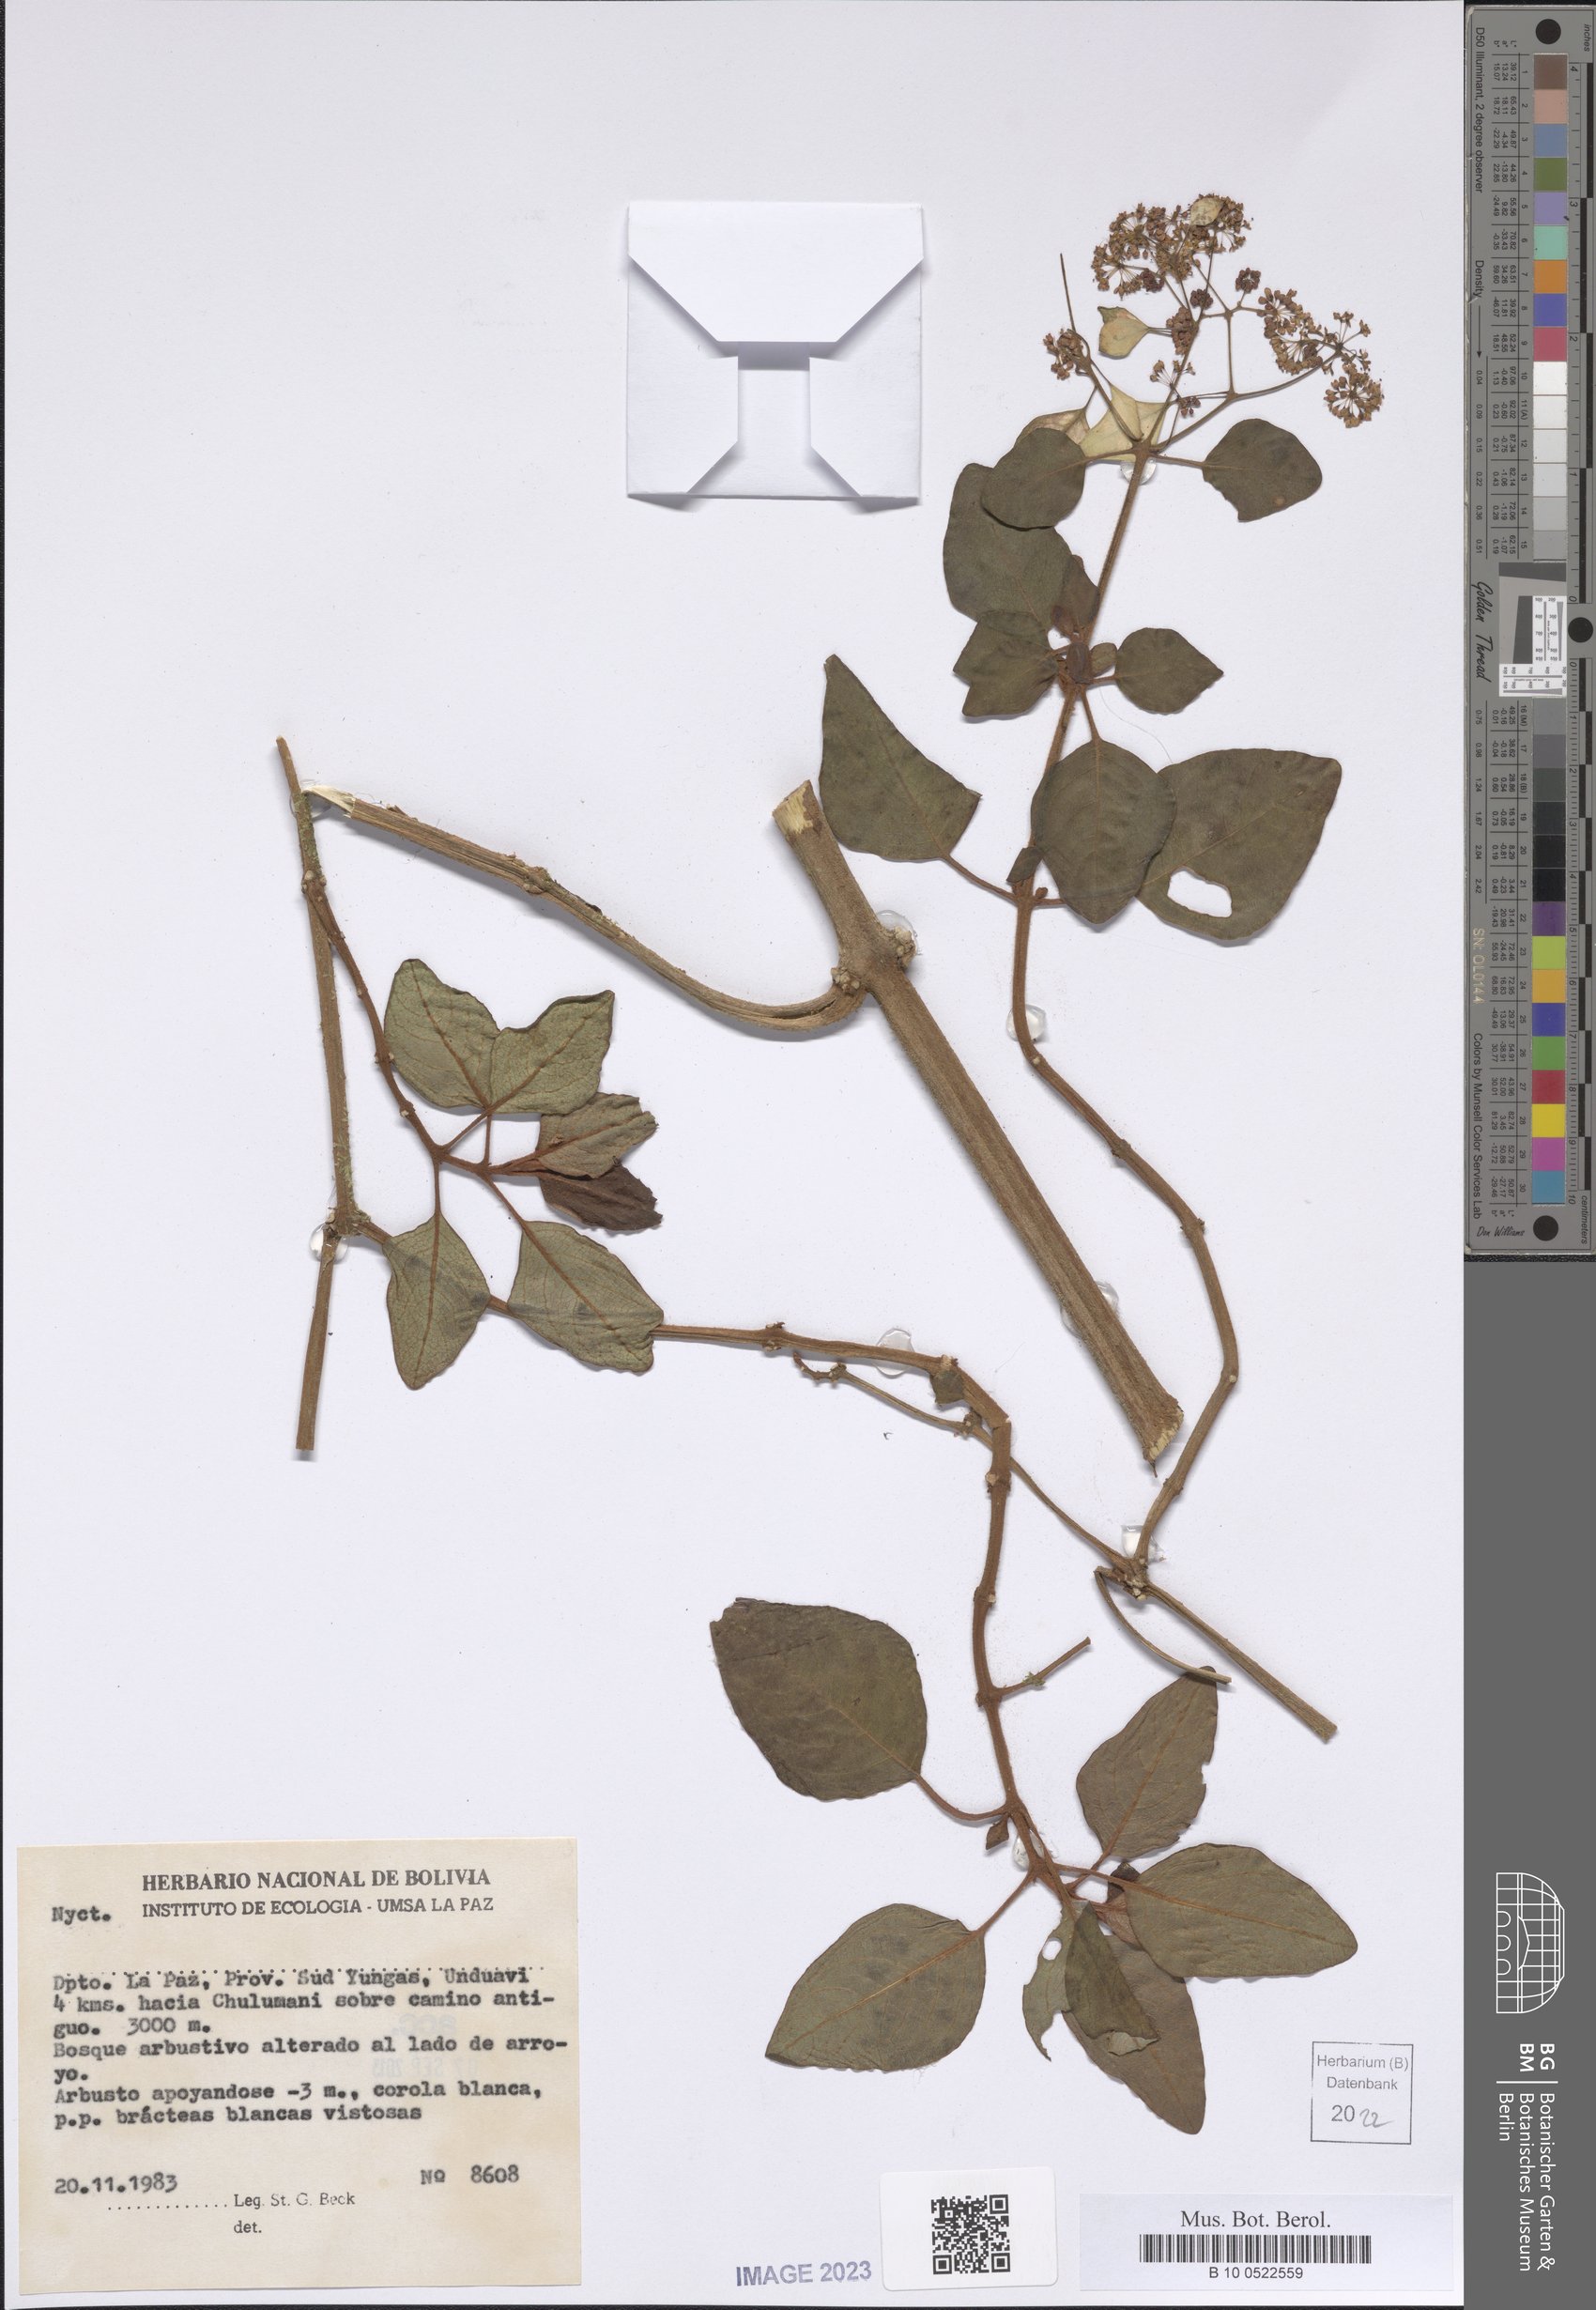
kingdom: Plantae
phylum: Tracheophyta
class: Magnoliopsida
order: Caryophyllales
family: Nyctaginaceae
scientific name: Nyctaginaceae
